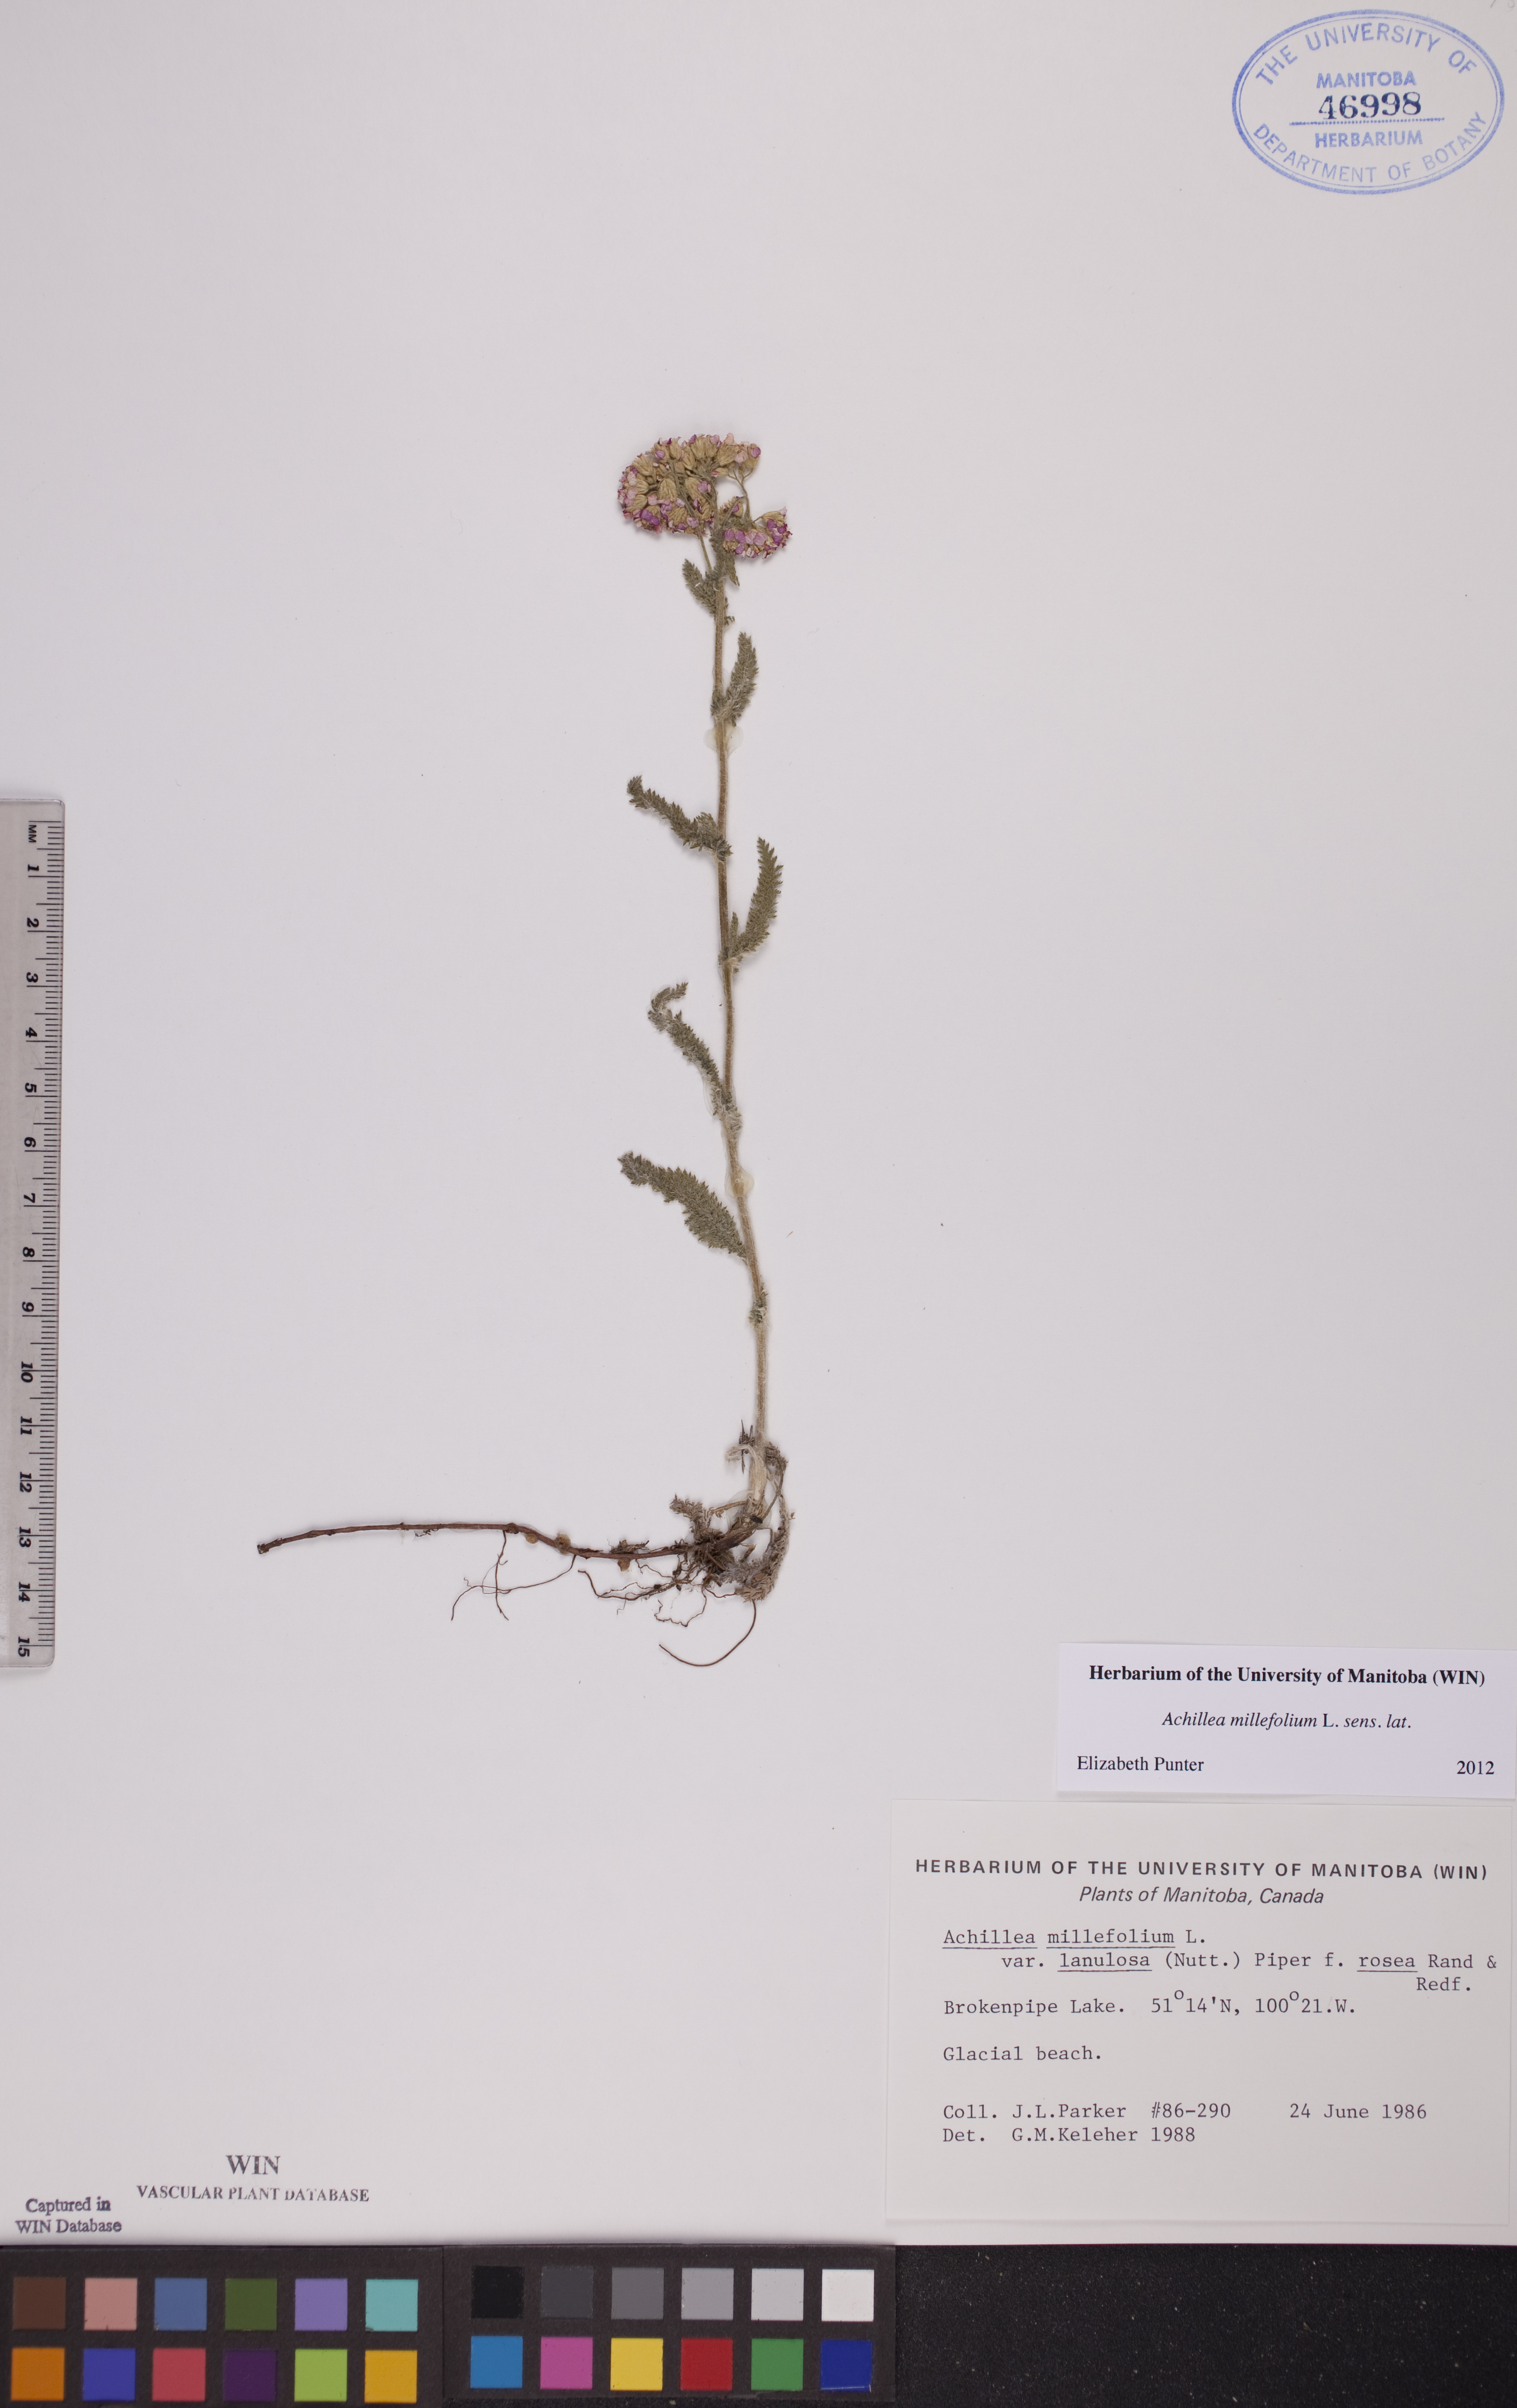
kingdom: Plantae
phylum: Tracheophyta
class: Magnoliopsida
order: Asterales
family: Asteraceae
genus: Achillea
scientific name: Achillea millefolium
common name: Yarrow
